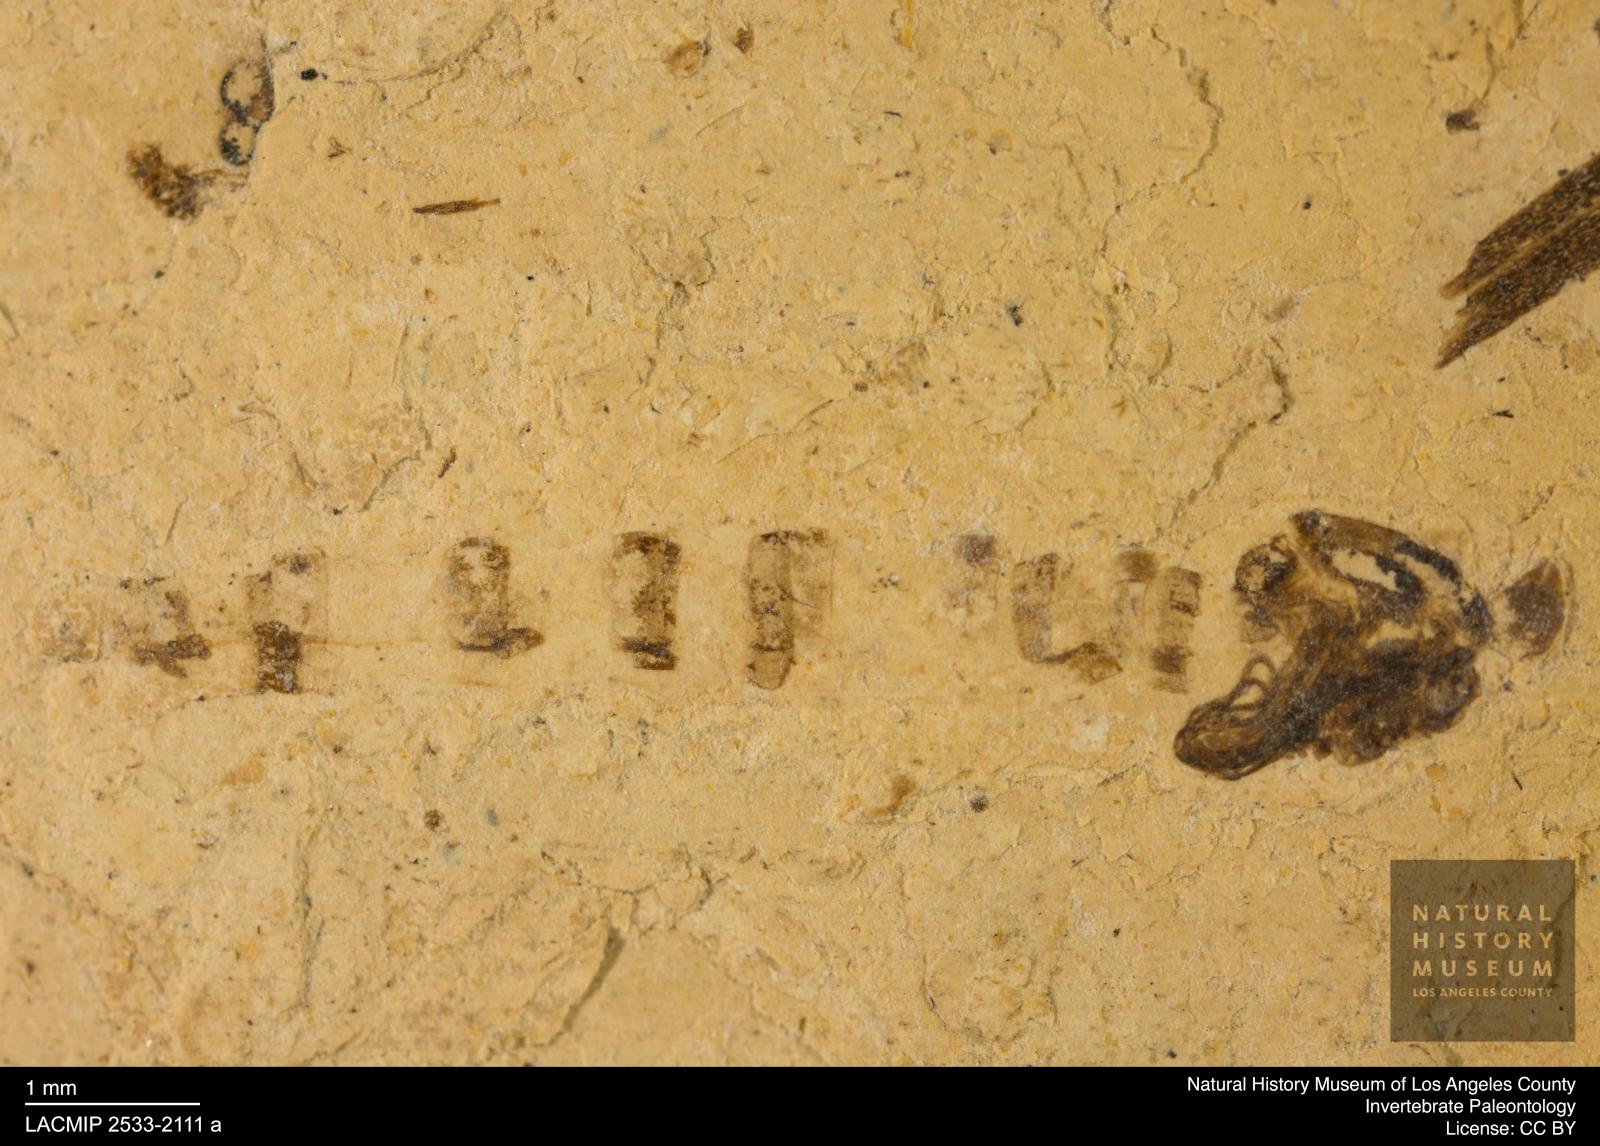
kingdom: Animalia
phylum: Arthropoda
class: Insecta
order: Diptera
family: Chironomidae
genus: Pelopiina
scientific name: Pelopiina
